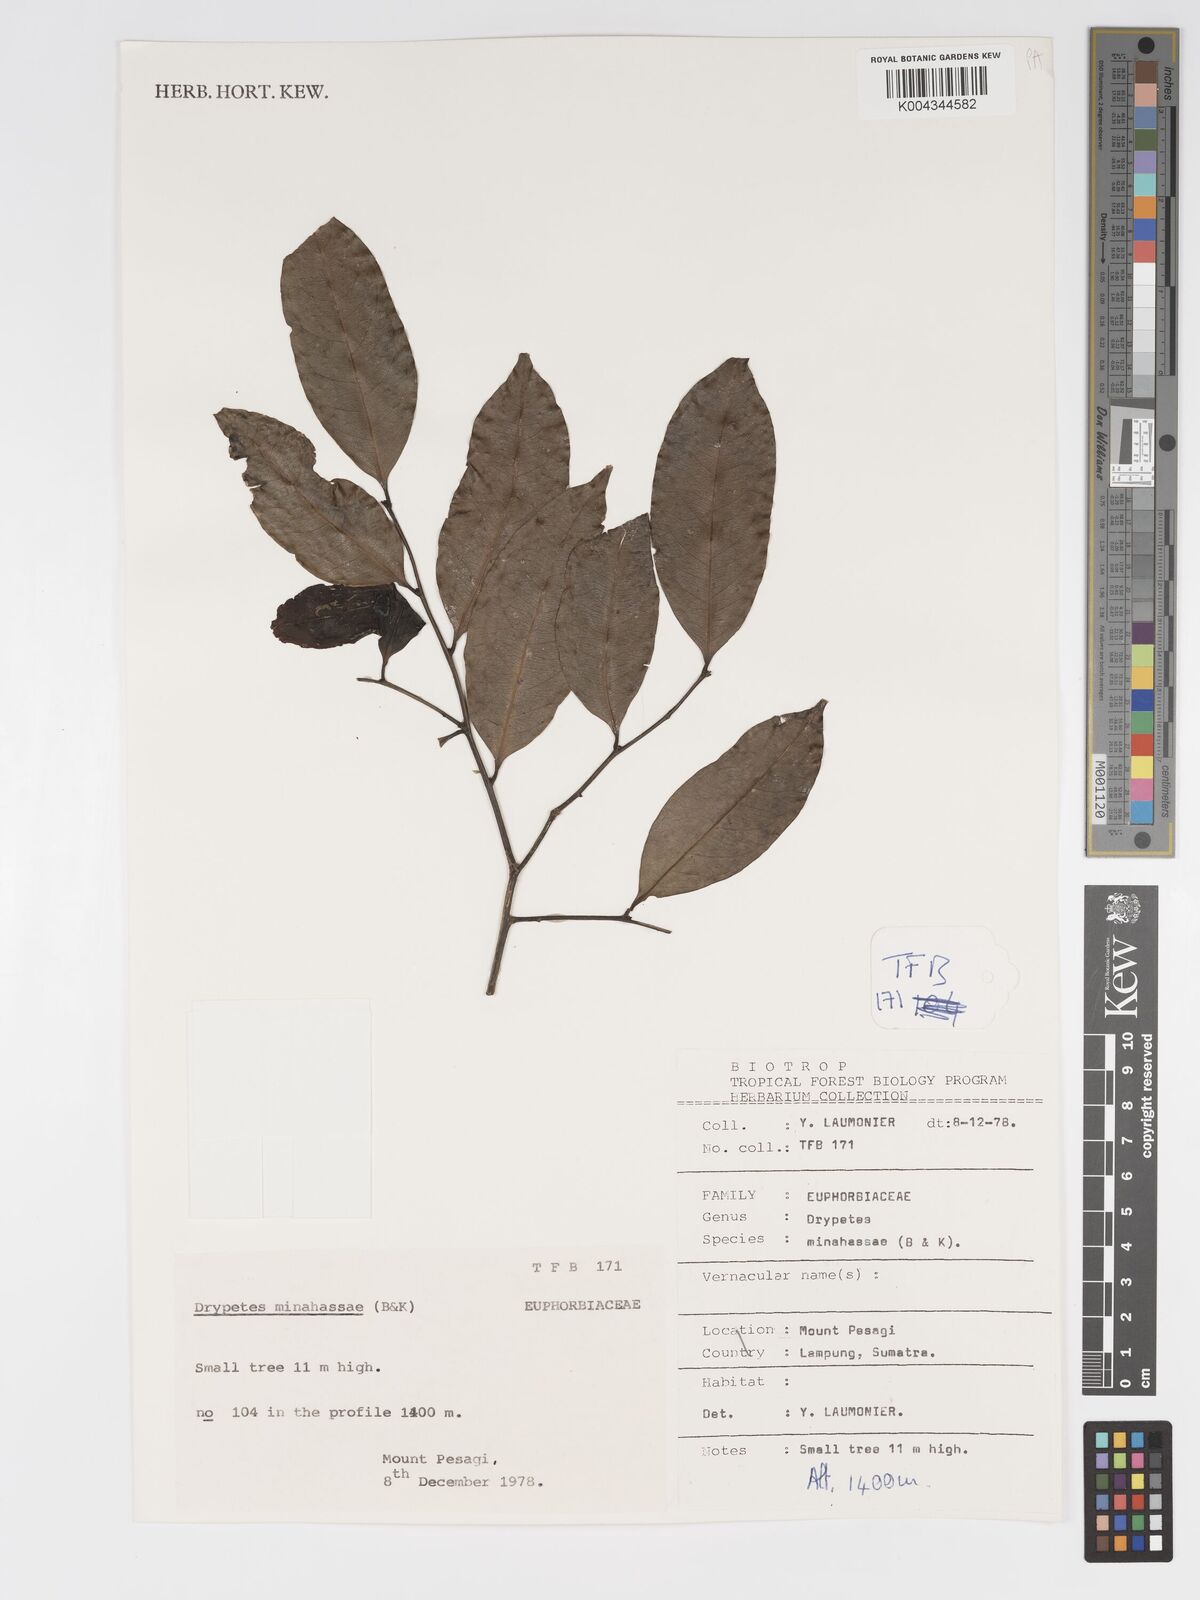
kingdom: Plantae
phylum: Tracheophyta
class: Magnoliopsida
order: Malpighiales
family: Putranjivaceae
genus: Drypetes
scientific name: Drypetes minahassae
